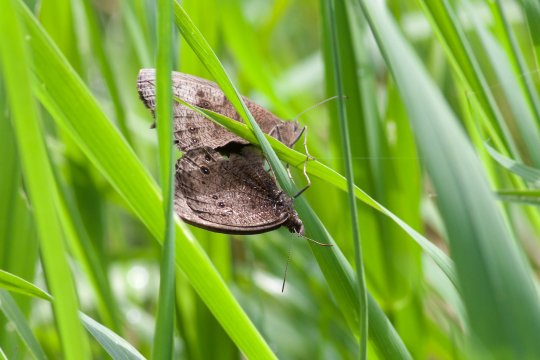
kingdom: Animalia
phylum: Arthropoda
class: Insecta
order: Lepidoptera
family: Nymphalidae
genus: Cercyonis
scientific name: Cercyonis pegala
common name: Common Wood-Nymph
